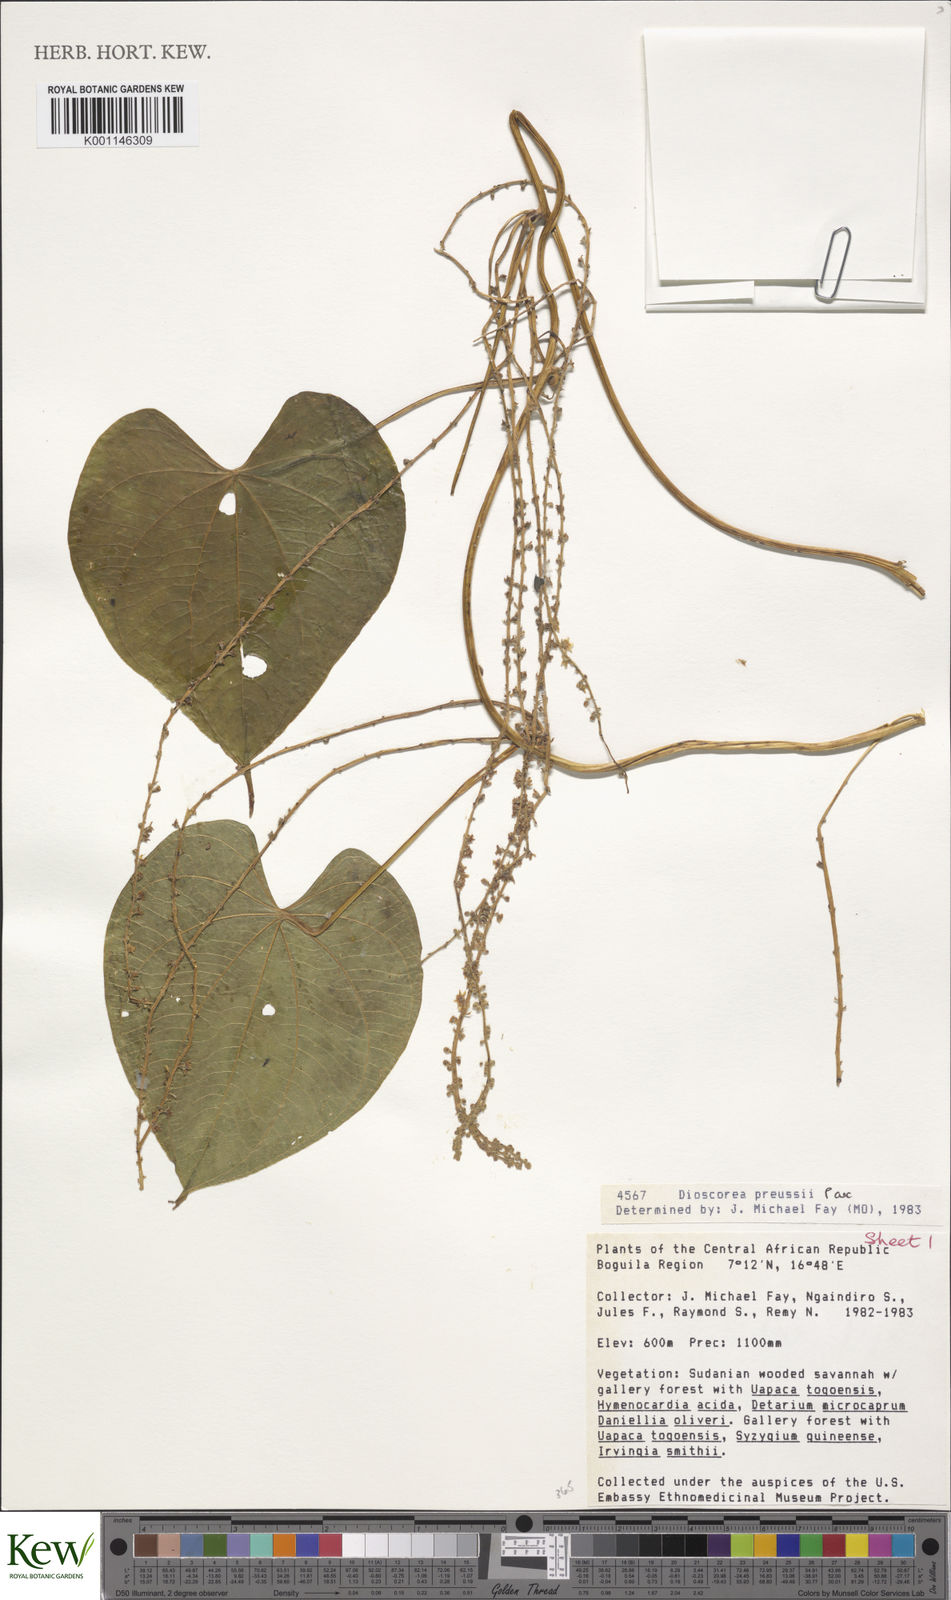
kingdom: Plantae
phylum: Tracheophyta
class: Liliopsida
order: Dioscoreales
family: Dioscoreaceae
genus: Dioscorea
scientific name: Dioscorea preussii
